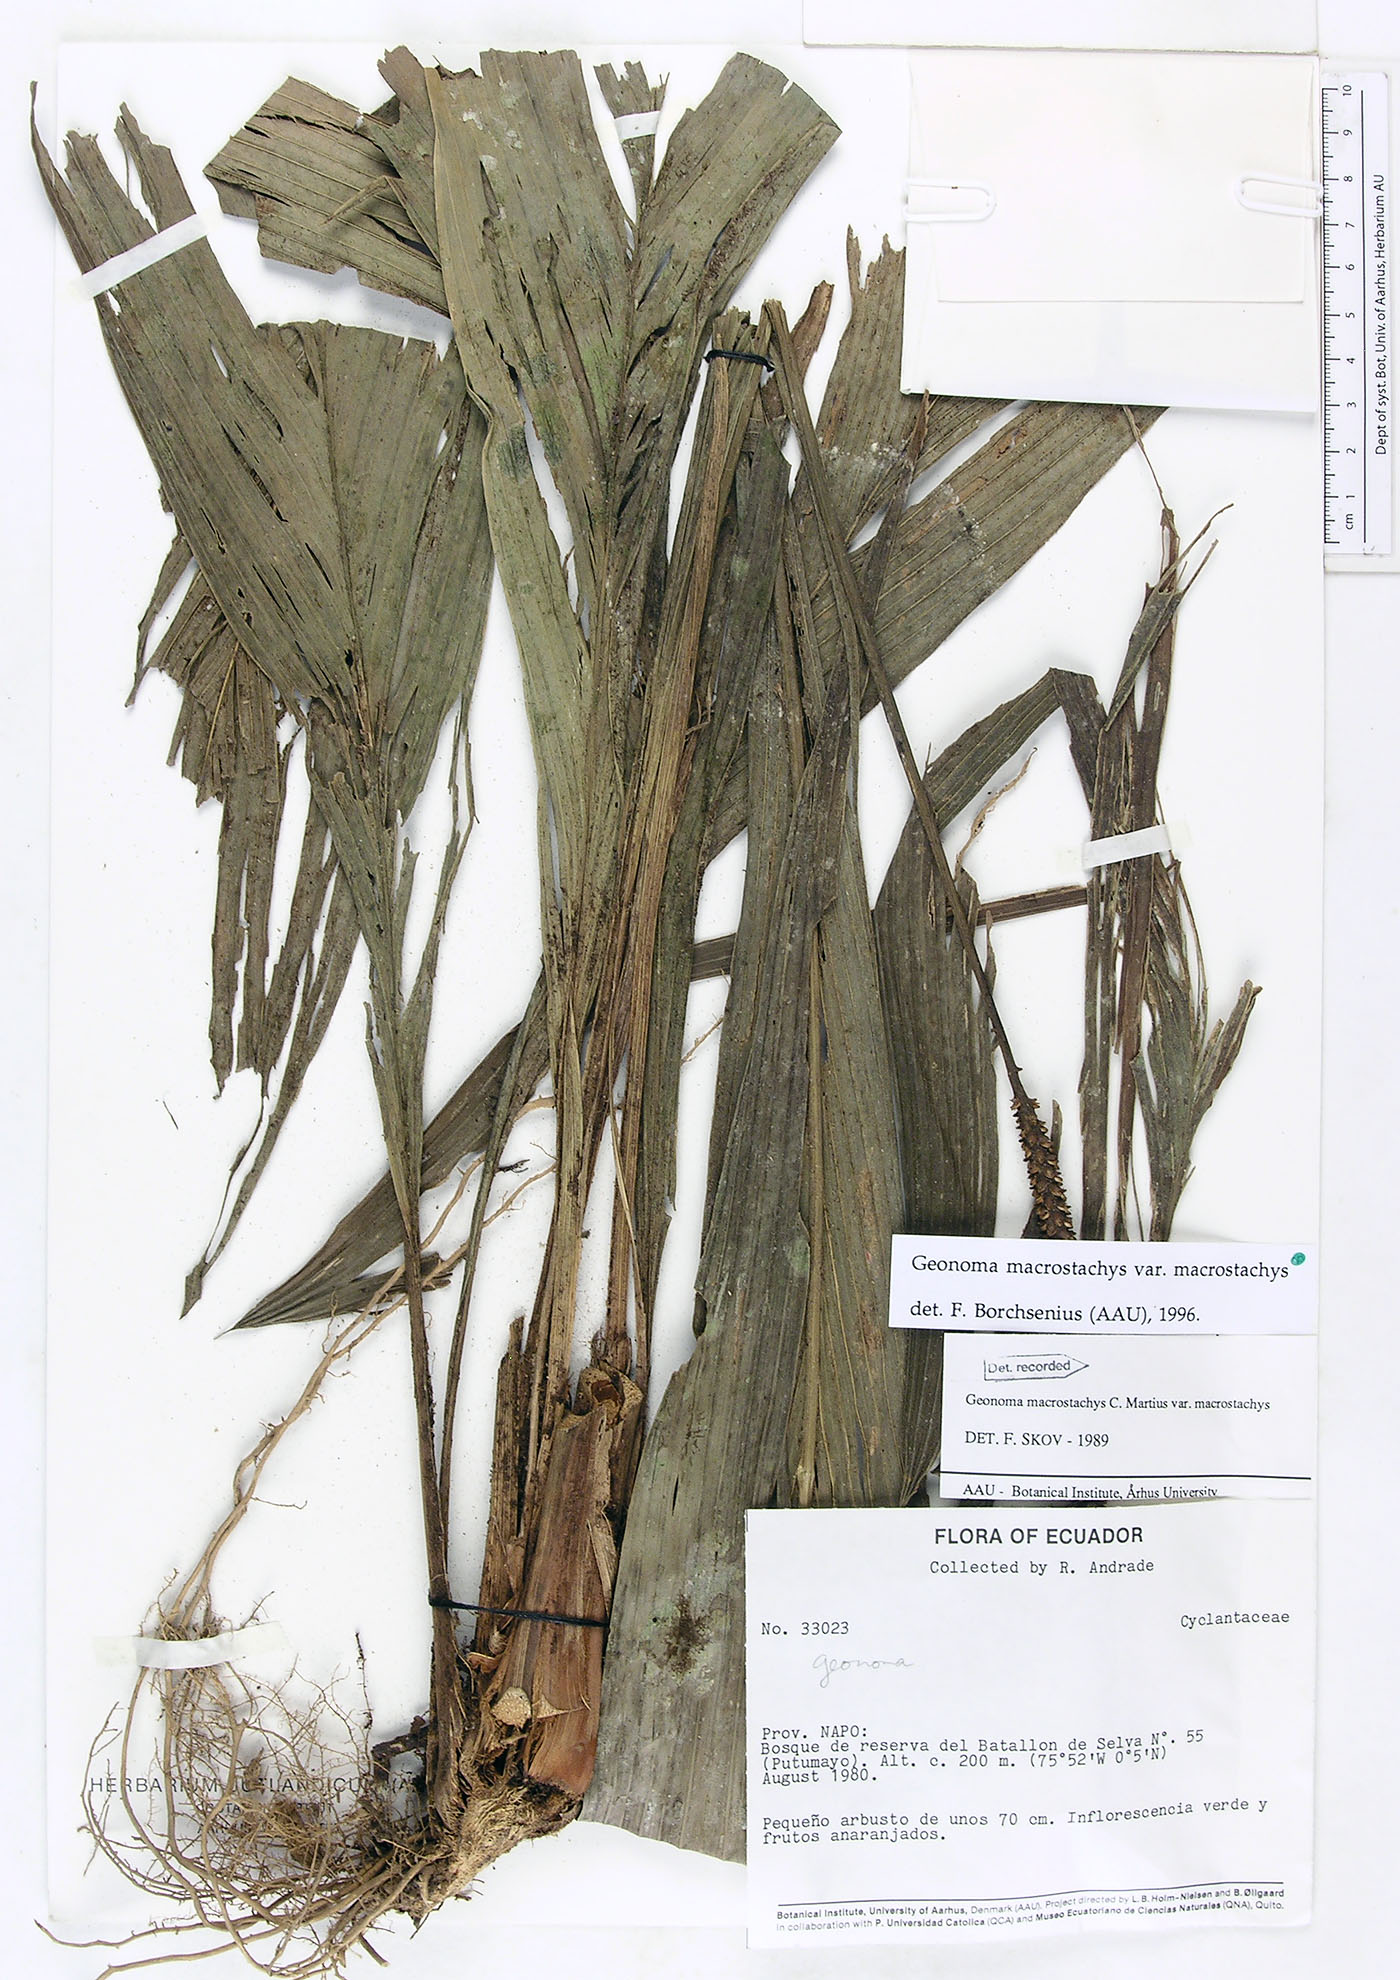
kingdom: Plantae
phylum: Tracheophyta
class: Liliopsida
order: Arecales
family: Arecaceae
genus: Geonoma
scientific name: Geonoma macrostachys
